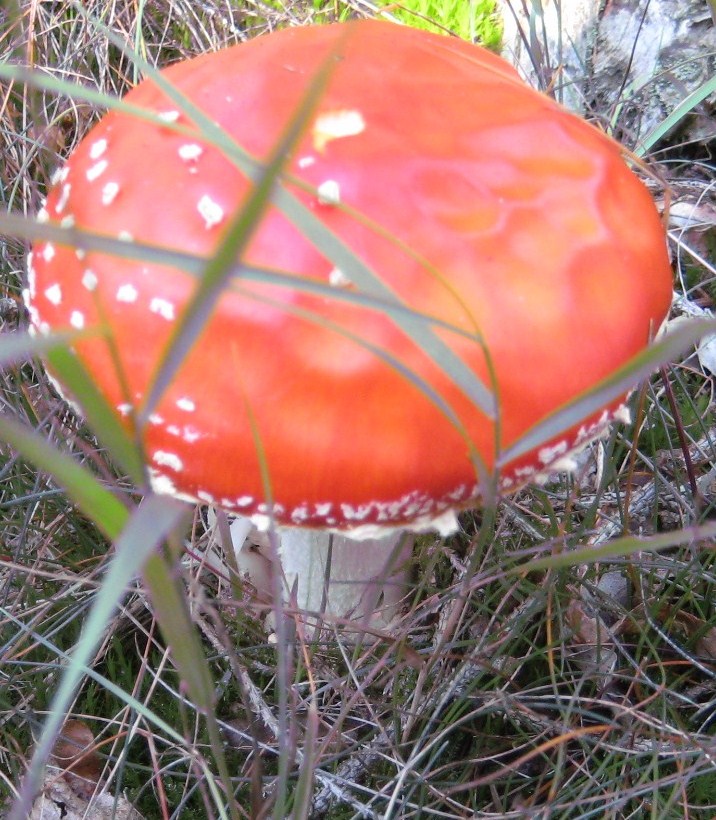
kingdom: Fungi
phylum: Basidiomycota
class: Agaricomycetes
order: Agaricales
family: Amanitaceae
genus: Amanita
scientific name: Amanita muscaria
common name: rød fluesvamp
